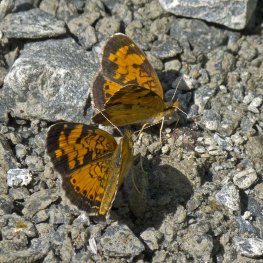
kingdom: Animalia
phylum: Arthropoda
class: Insecta
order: Lepidoptera
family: Nymphalidae
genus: Phyciodes
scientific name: Phyciodes tharos
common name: Northern Crescent
